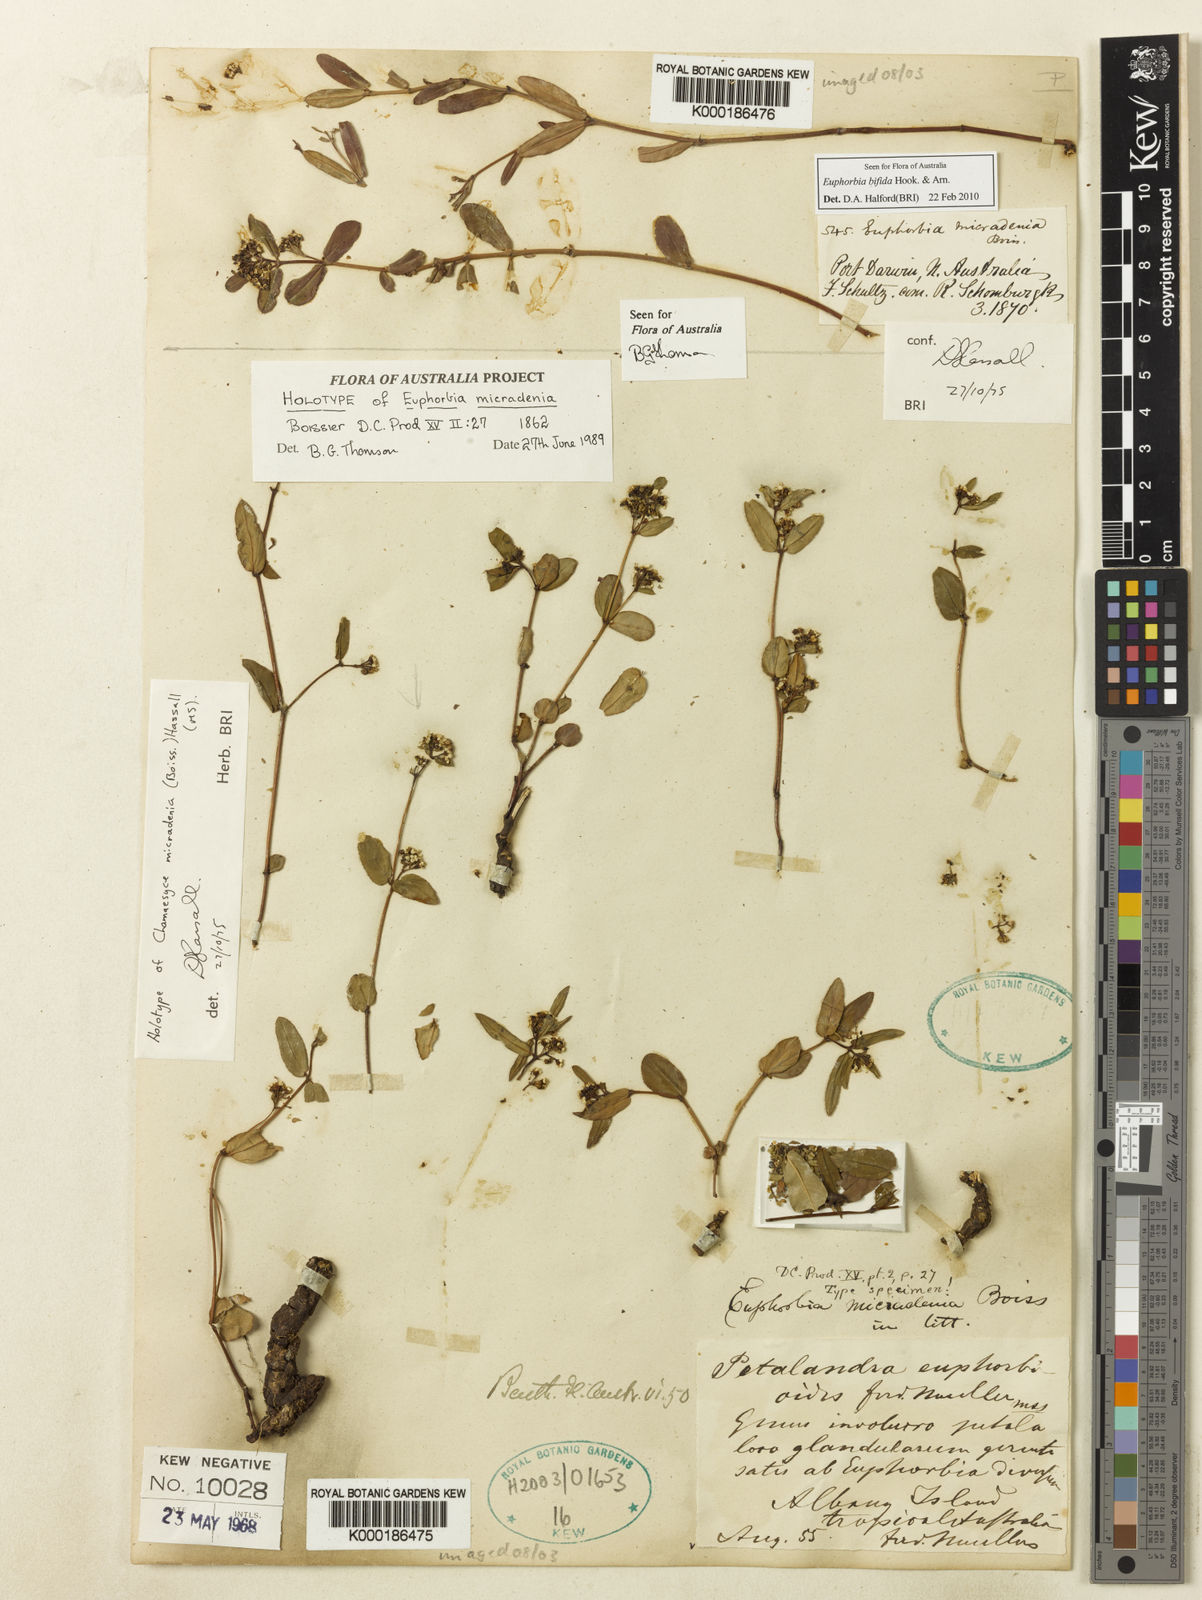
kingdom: Plantae
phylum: Tracheophyta
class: Magnoliopsida
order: Malpighiales
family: Euphorbiaceae
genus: Euphorbia
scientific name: Euphorbia bifida
